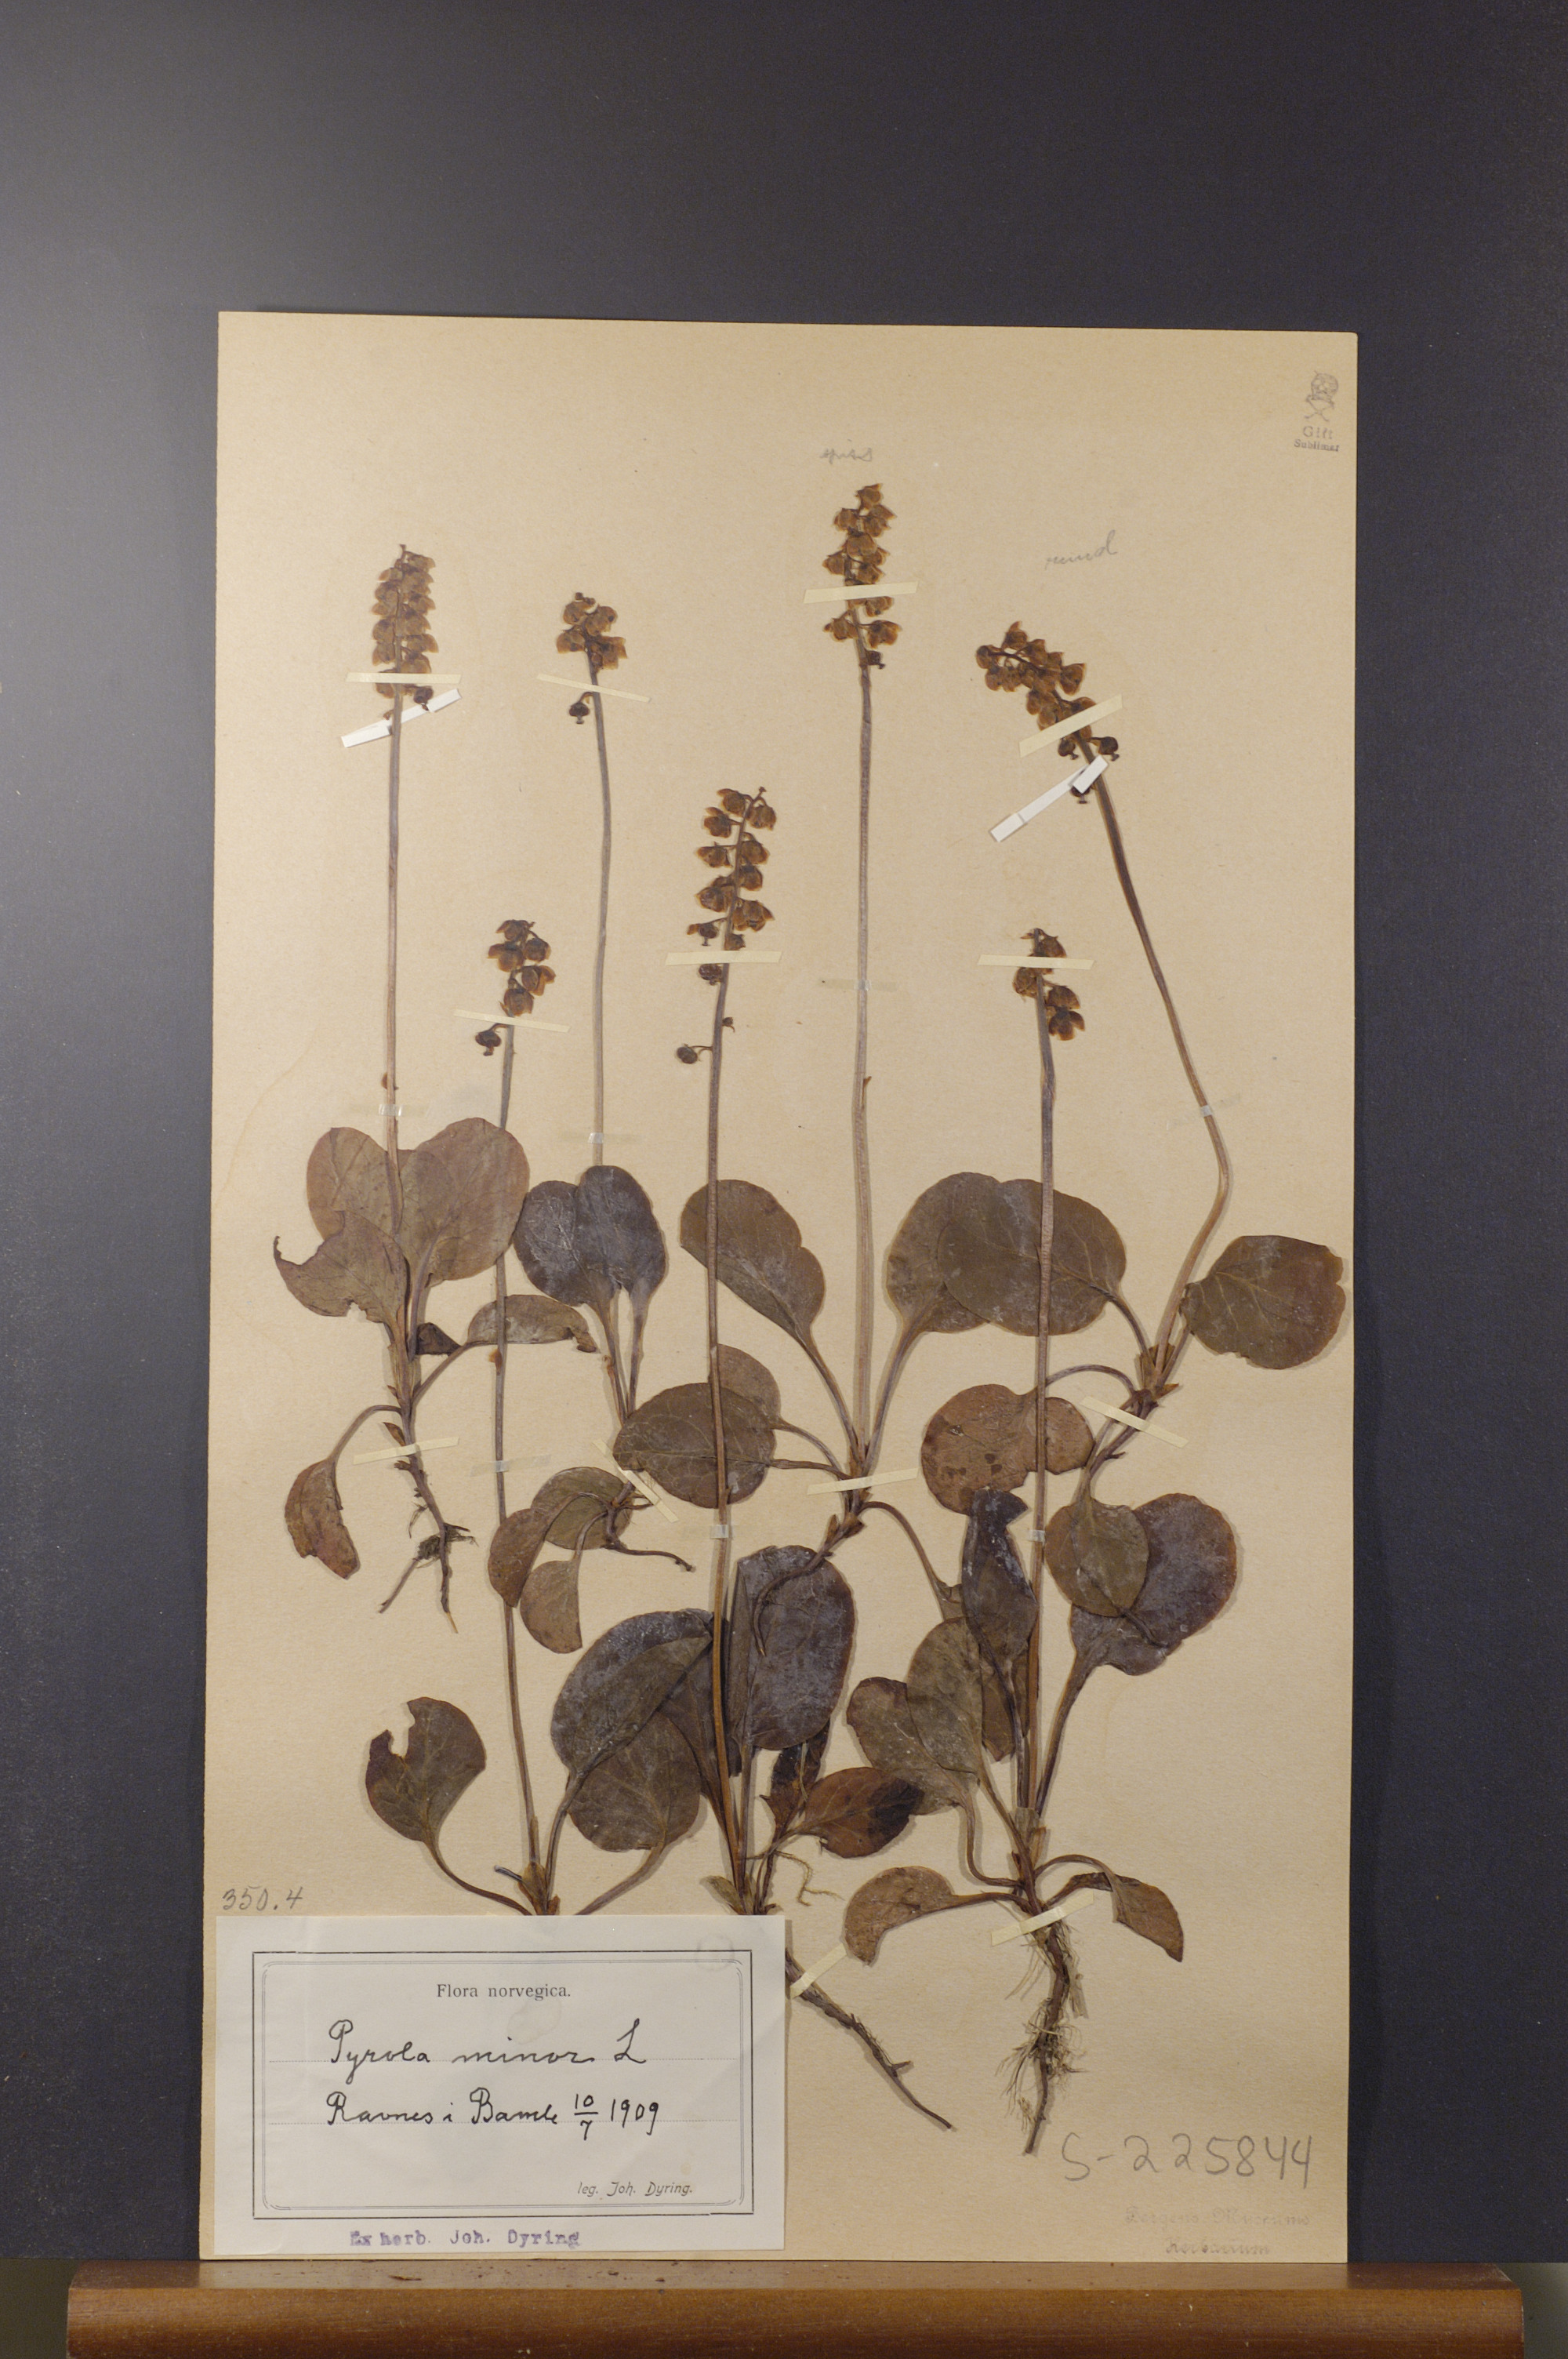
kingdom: Plantae
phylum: Tracheophyta
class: Magnoliopsida
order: Ericales
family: Ericaceae
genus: Pyrola
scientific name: Pyrola minor
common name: Common wintergreen
